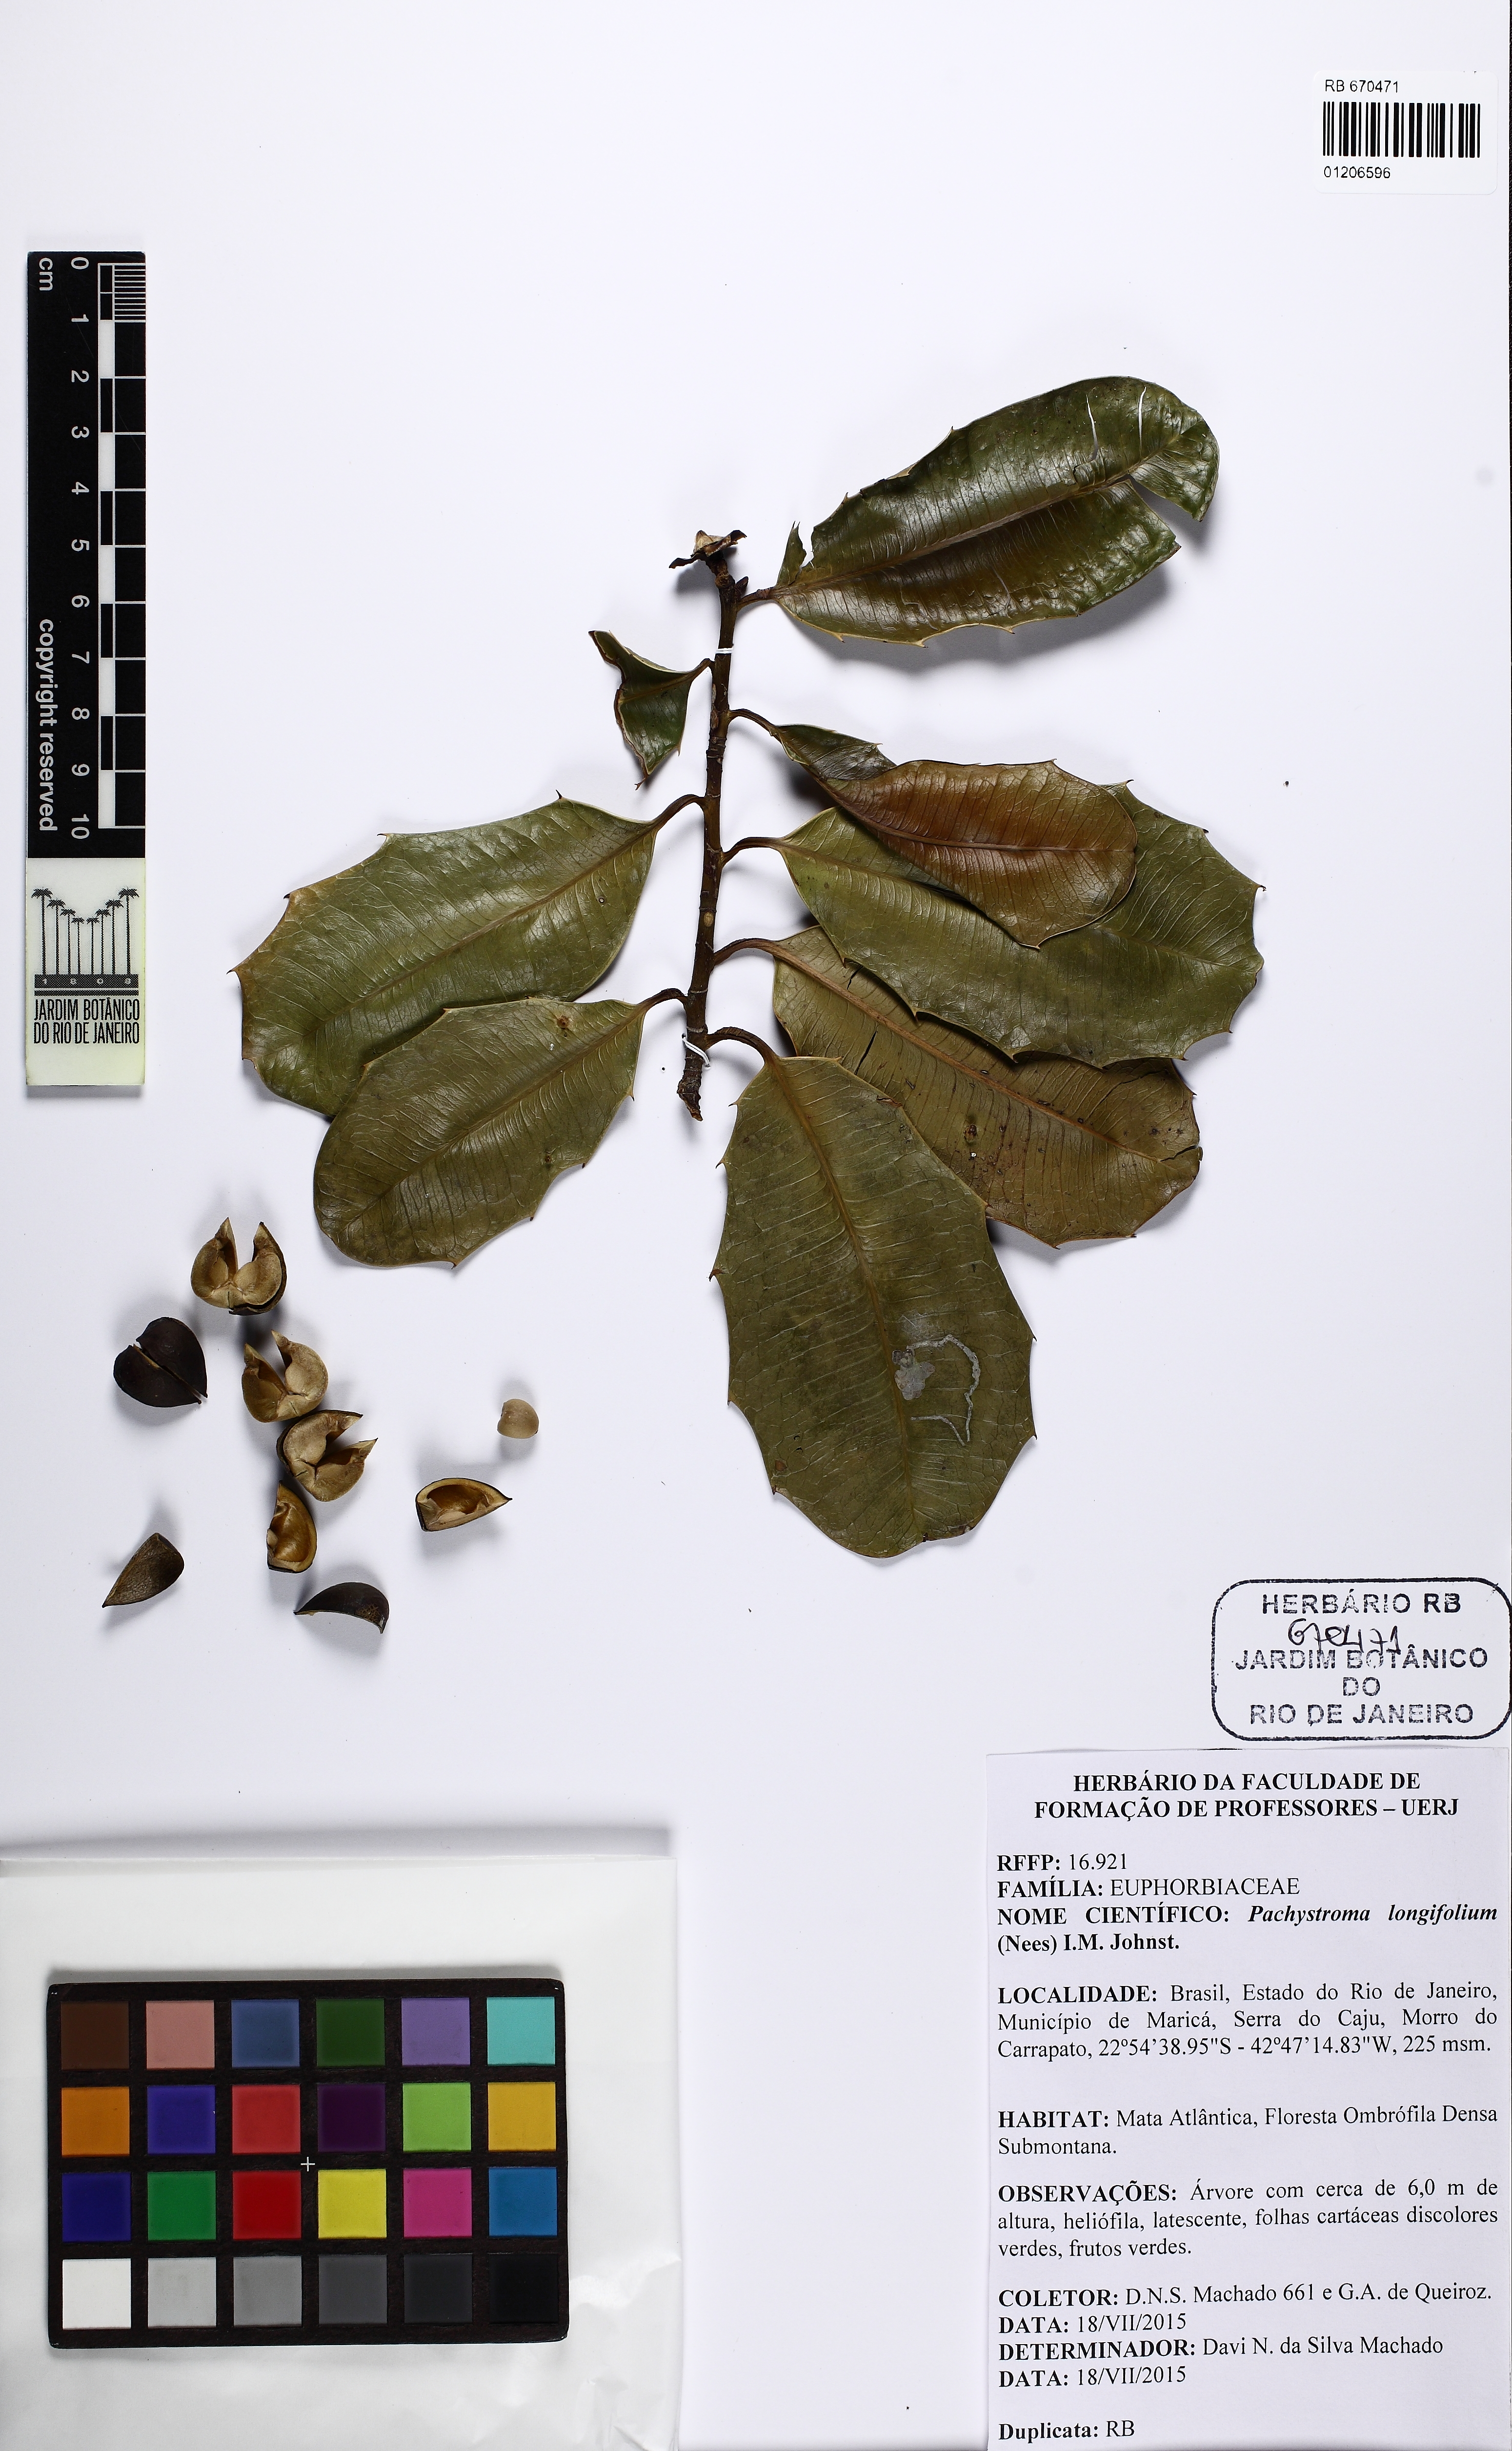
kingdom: Plantae
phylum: Tracheophyta
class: Magnoliopsida
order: Malpighiales
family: Euphorbiaceae
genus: Pachystroma
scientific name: Pachystroma longifolium
